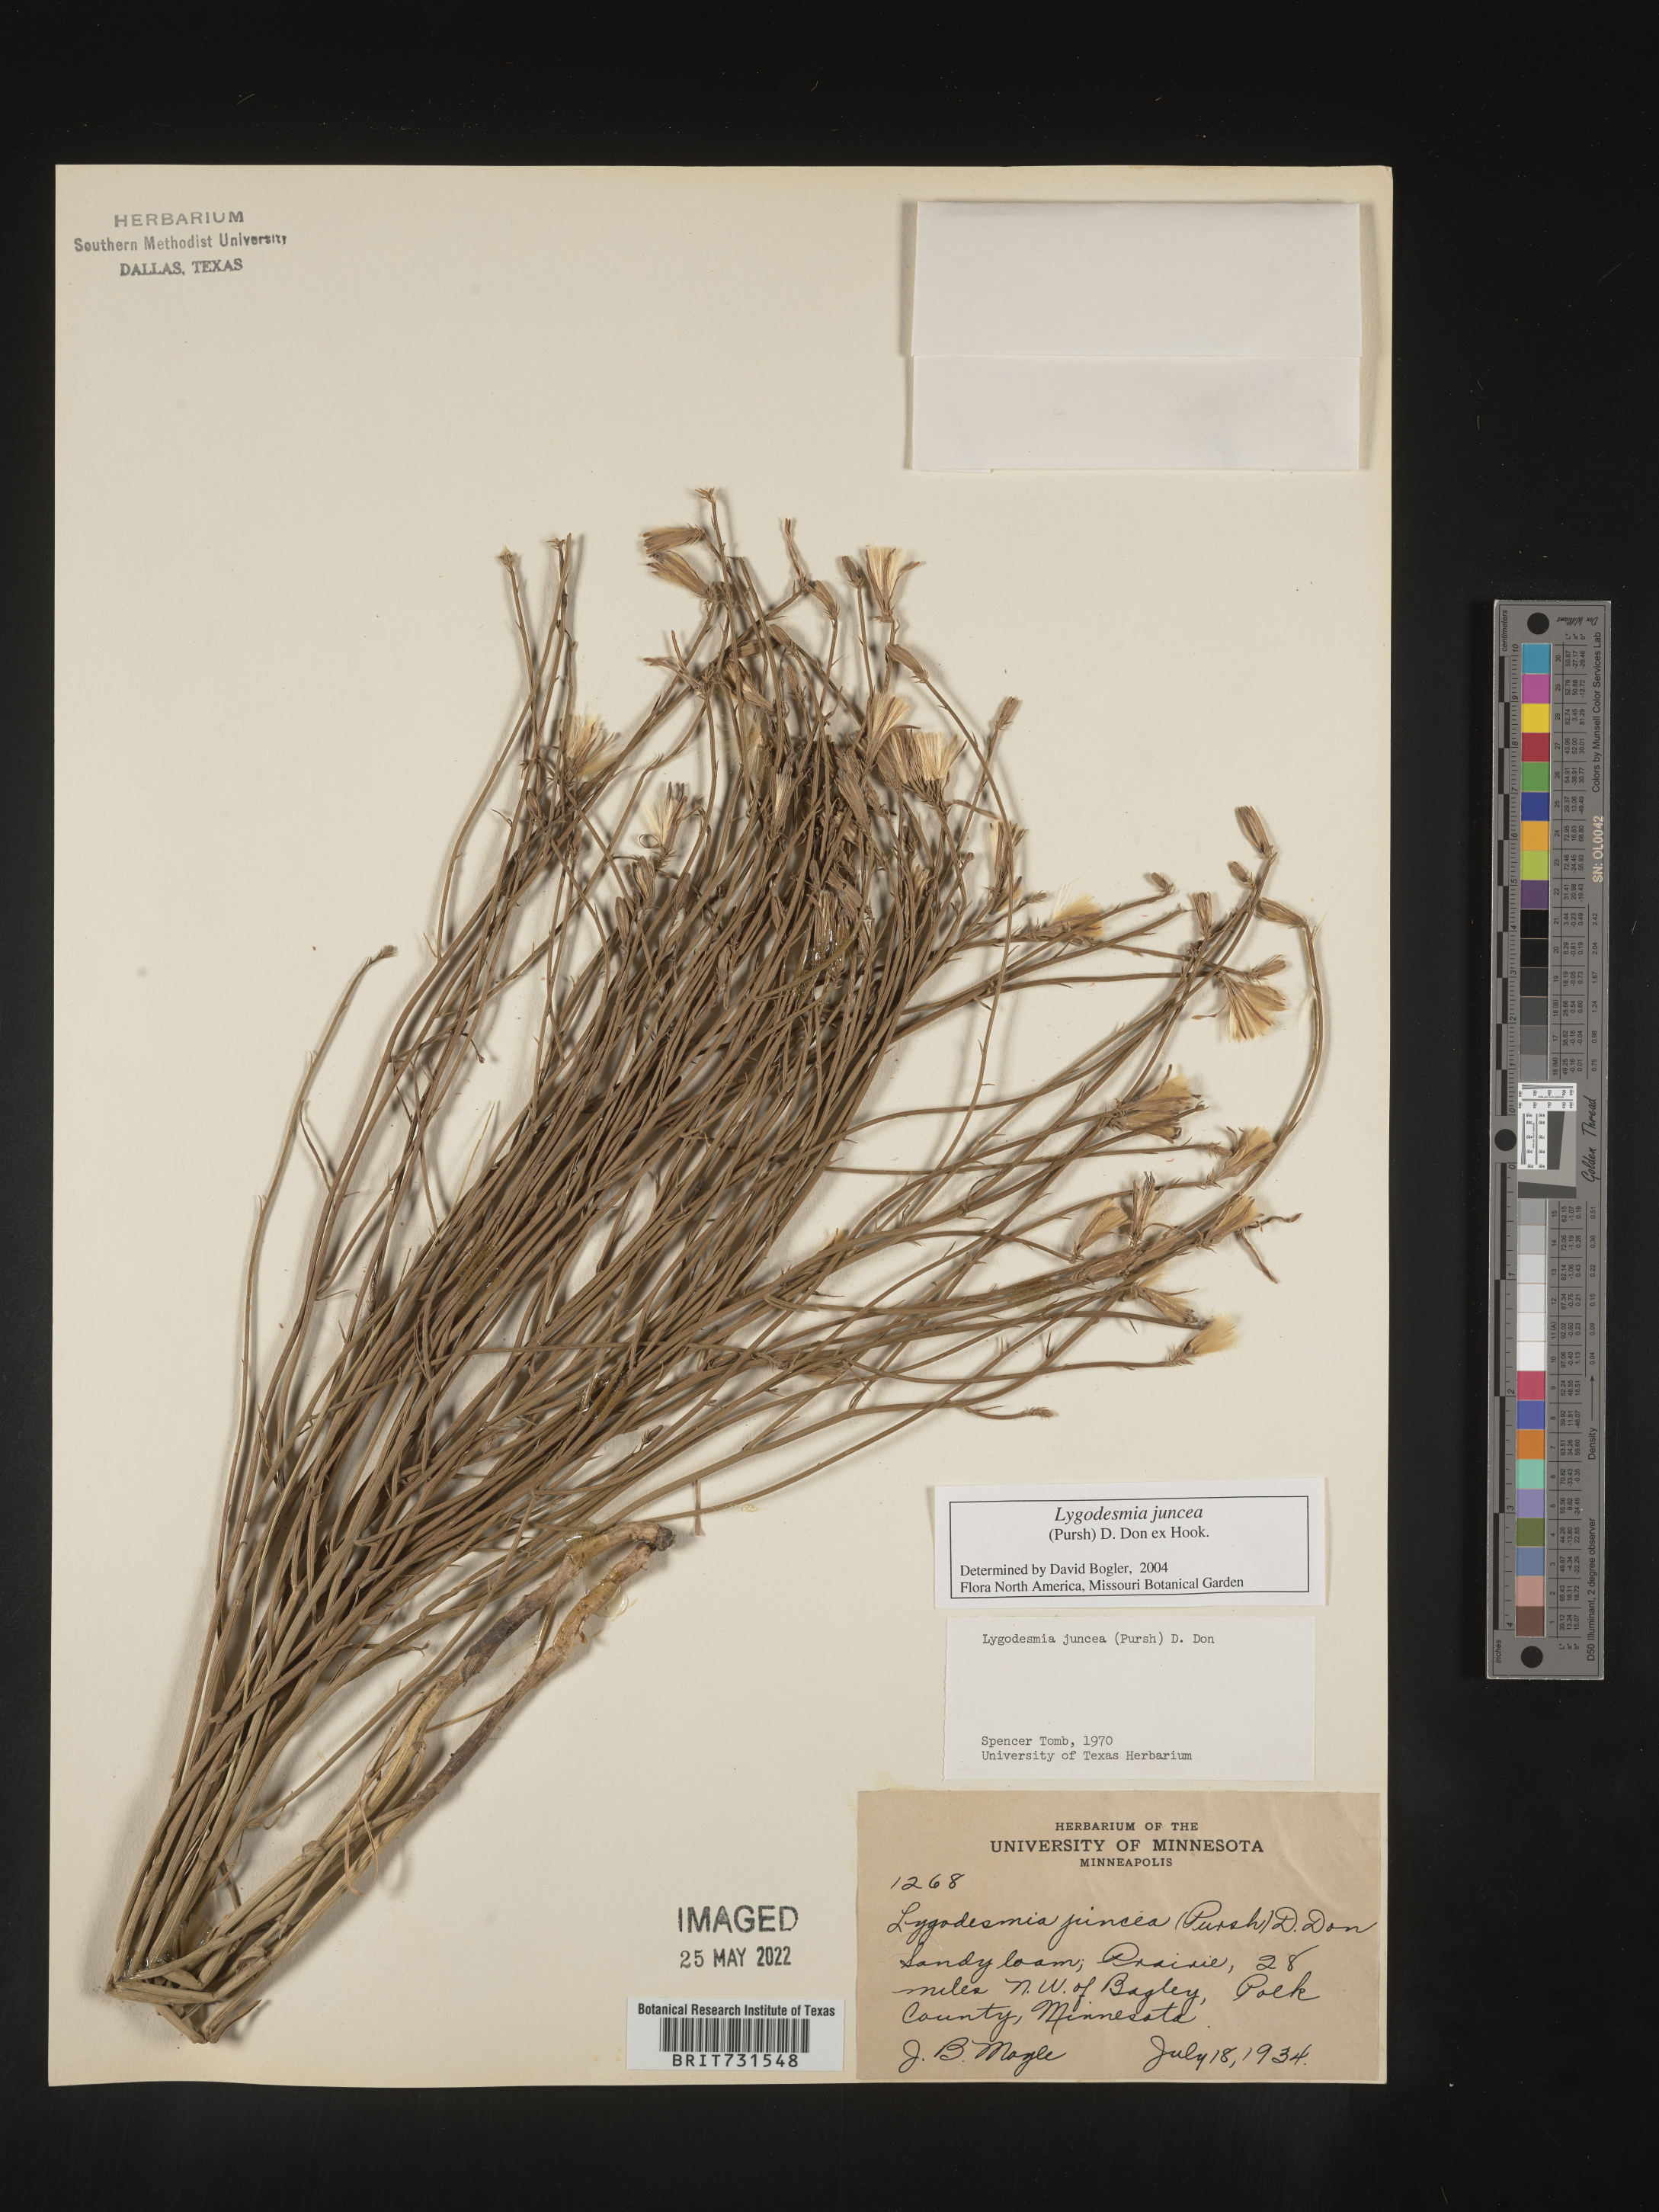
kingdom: Plantae
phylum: Tracheophyta
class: Magnoliopsida
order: Asterales
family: Asteraceae
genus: Lygodesmia
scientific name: Lygodesmia juncea
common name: Common skeletonweed
